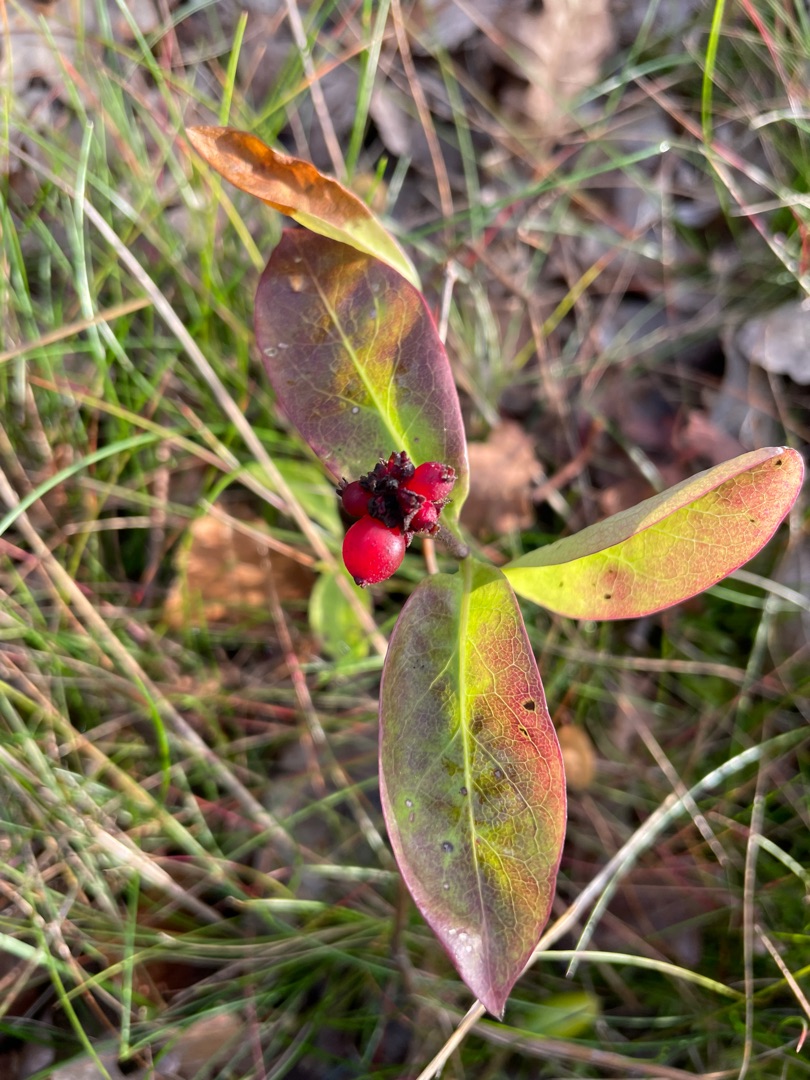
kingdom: Plantae
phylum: Tracheophyta
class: Magnoliopsida
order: Dipsacales
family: Caprifoliaceae
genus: Lonicera
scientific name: Lonicera periclymenum
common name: Almindelig gedeblad
